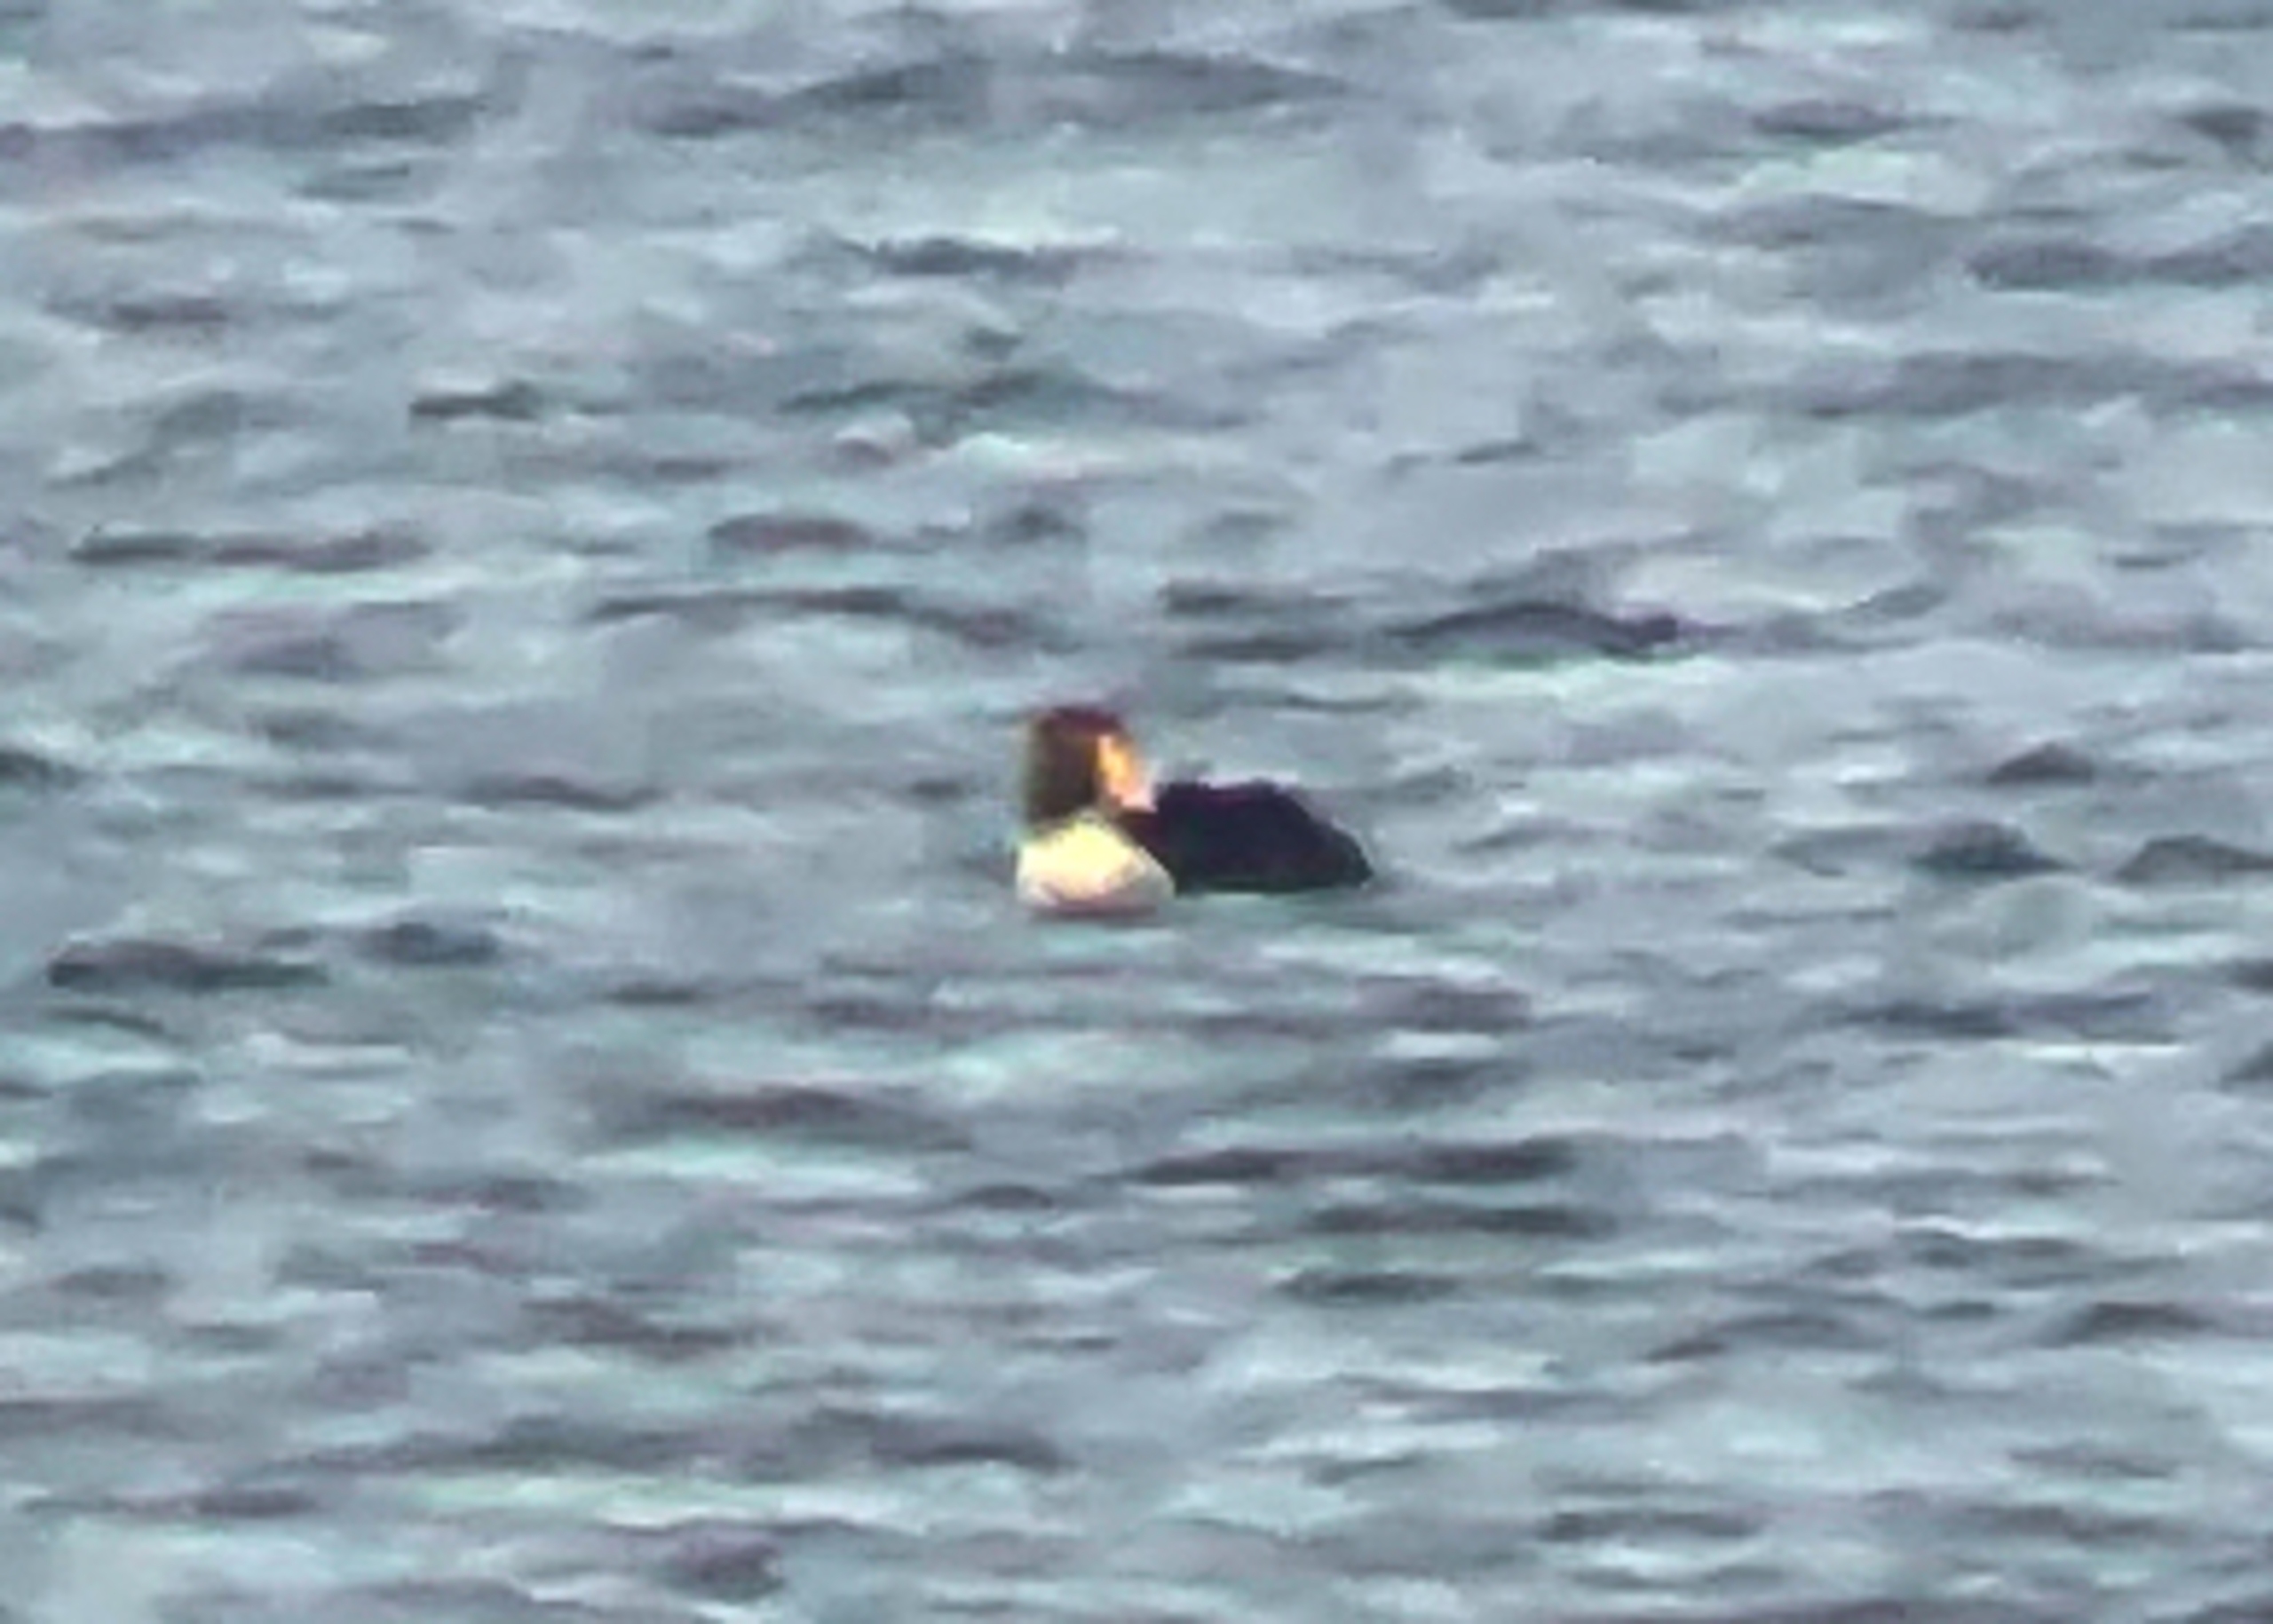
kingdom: Animalia
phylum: Chordata
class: Aves
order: Anseriformes
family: Anatidae
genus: Somateria
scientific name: Somateria spectabilis
